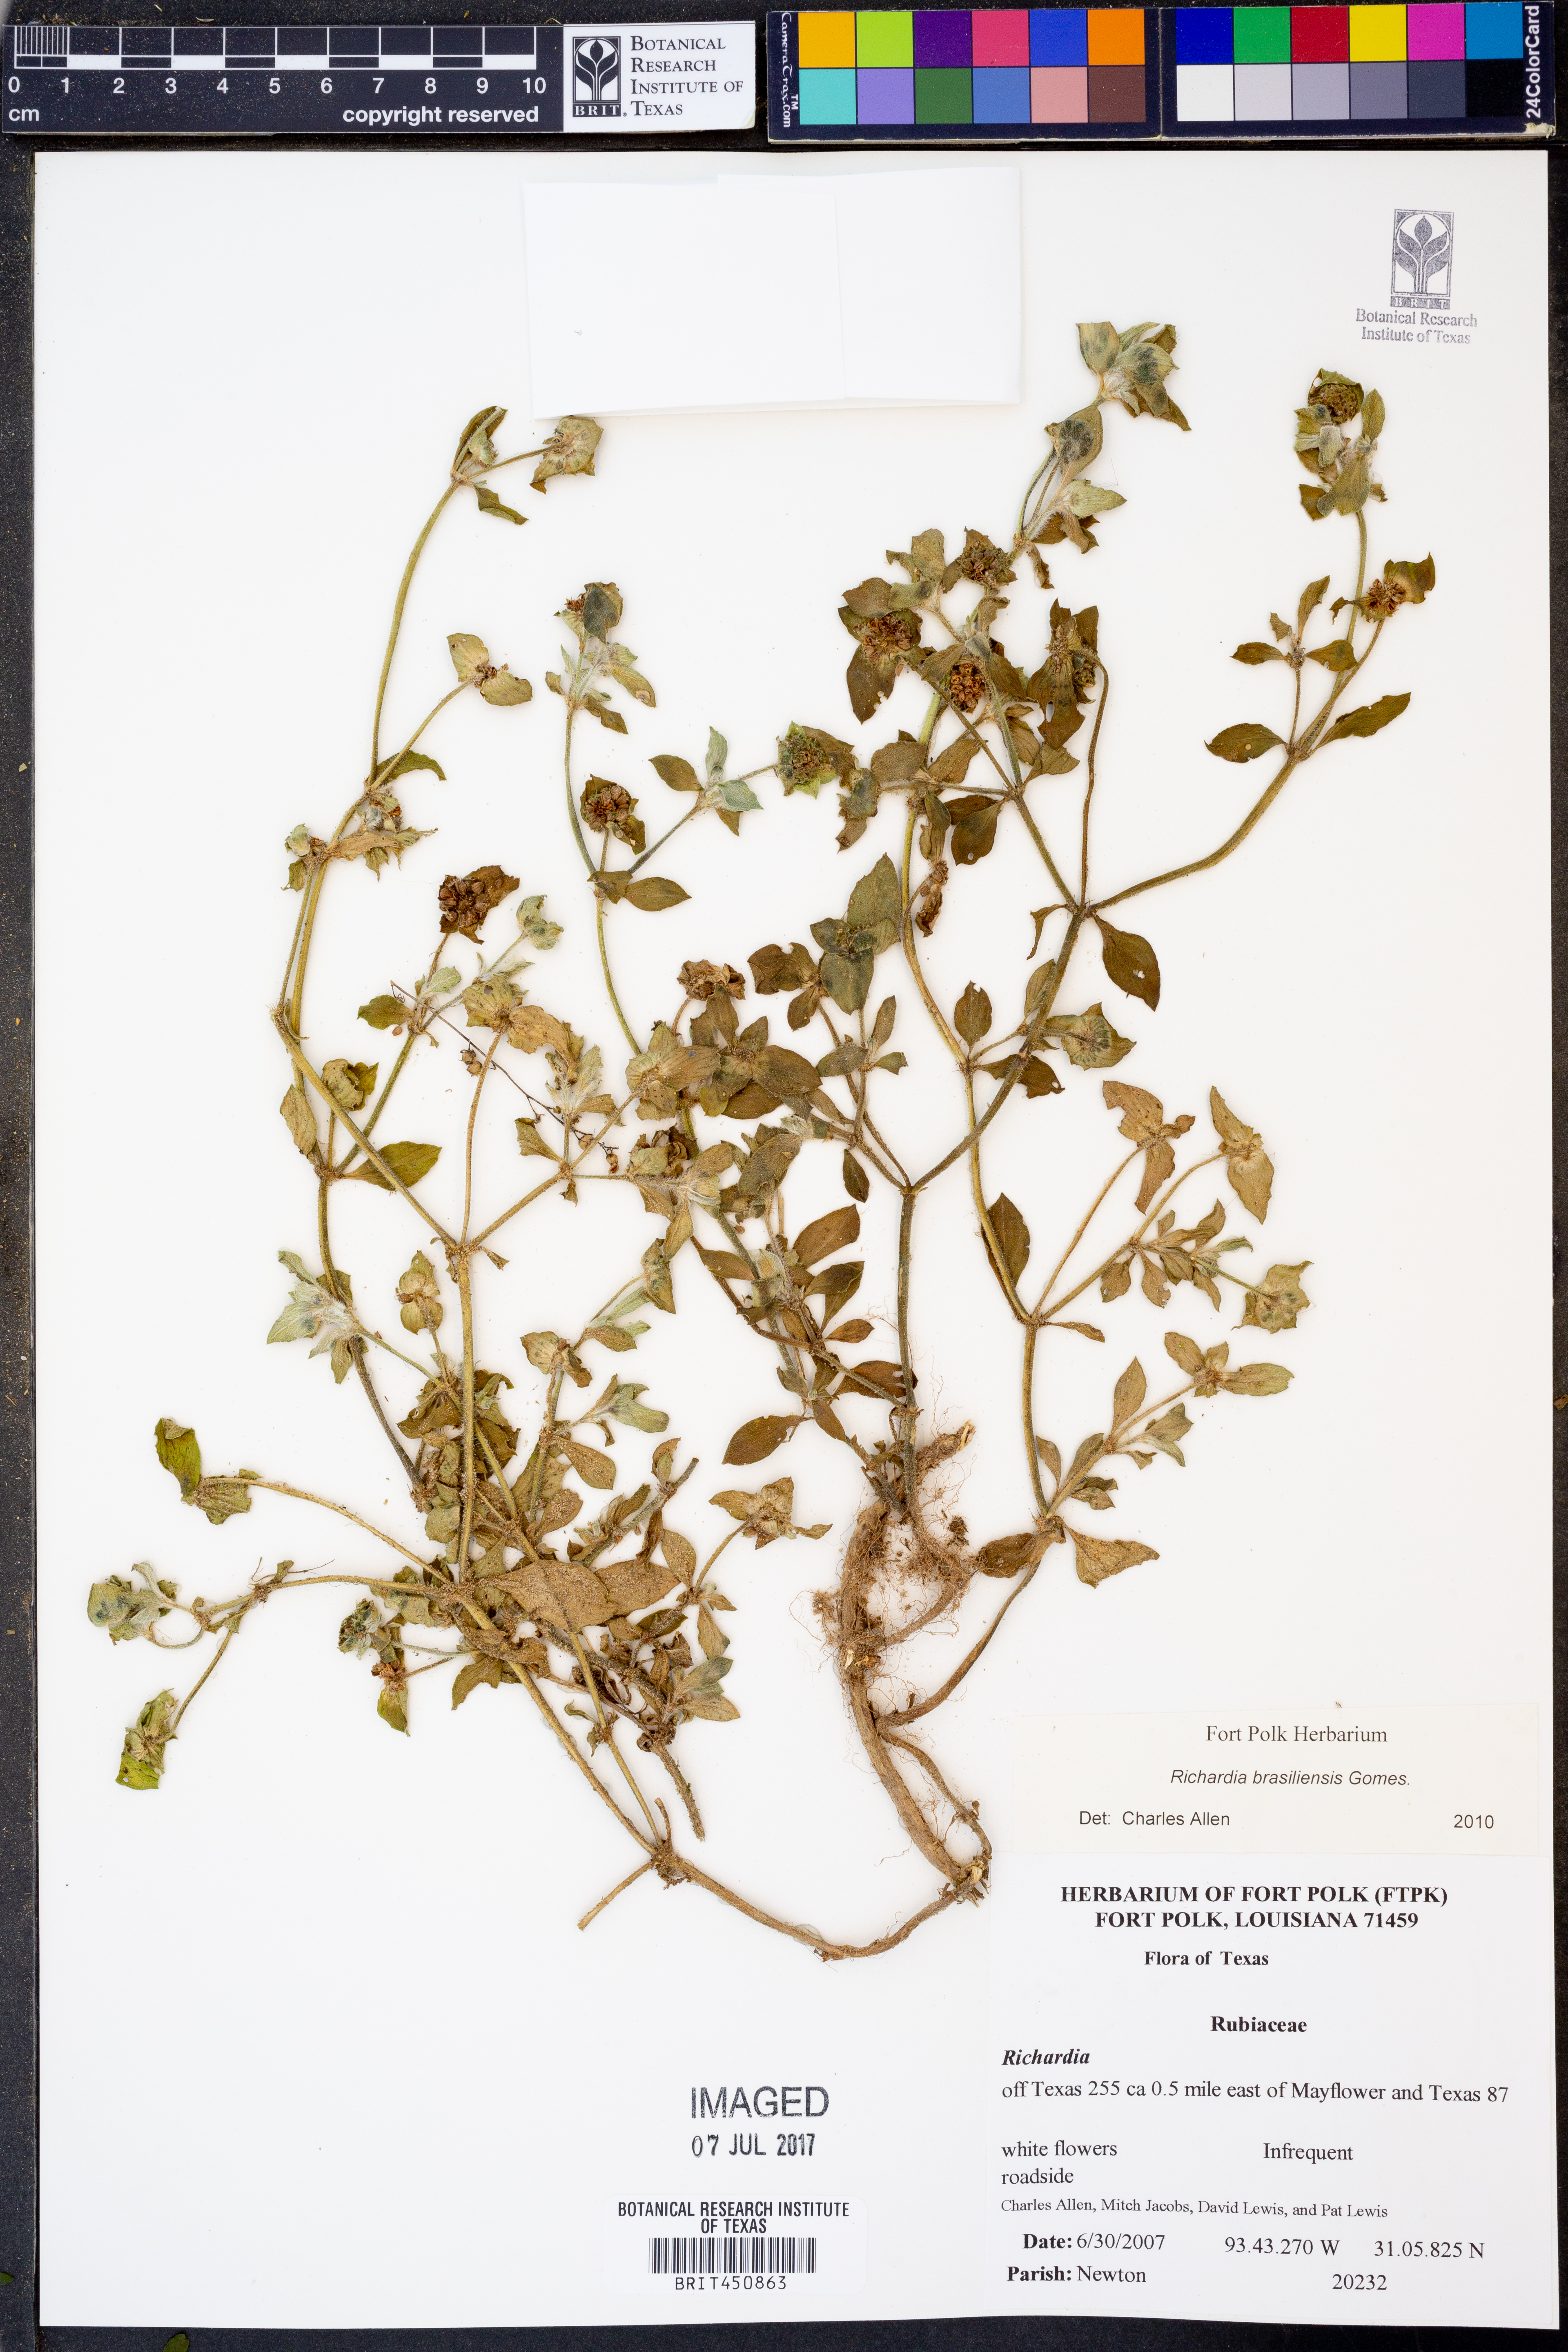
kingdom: Plantae
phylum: Tracheophyta
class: Magnoliopsida
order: Gentianales
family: Rubiaceae
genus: Richardia
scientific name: Richardia brasiliensis
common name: Tropical mexican clover
